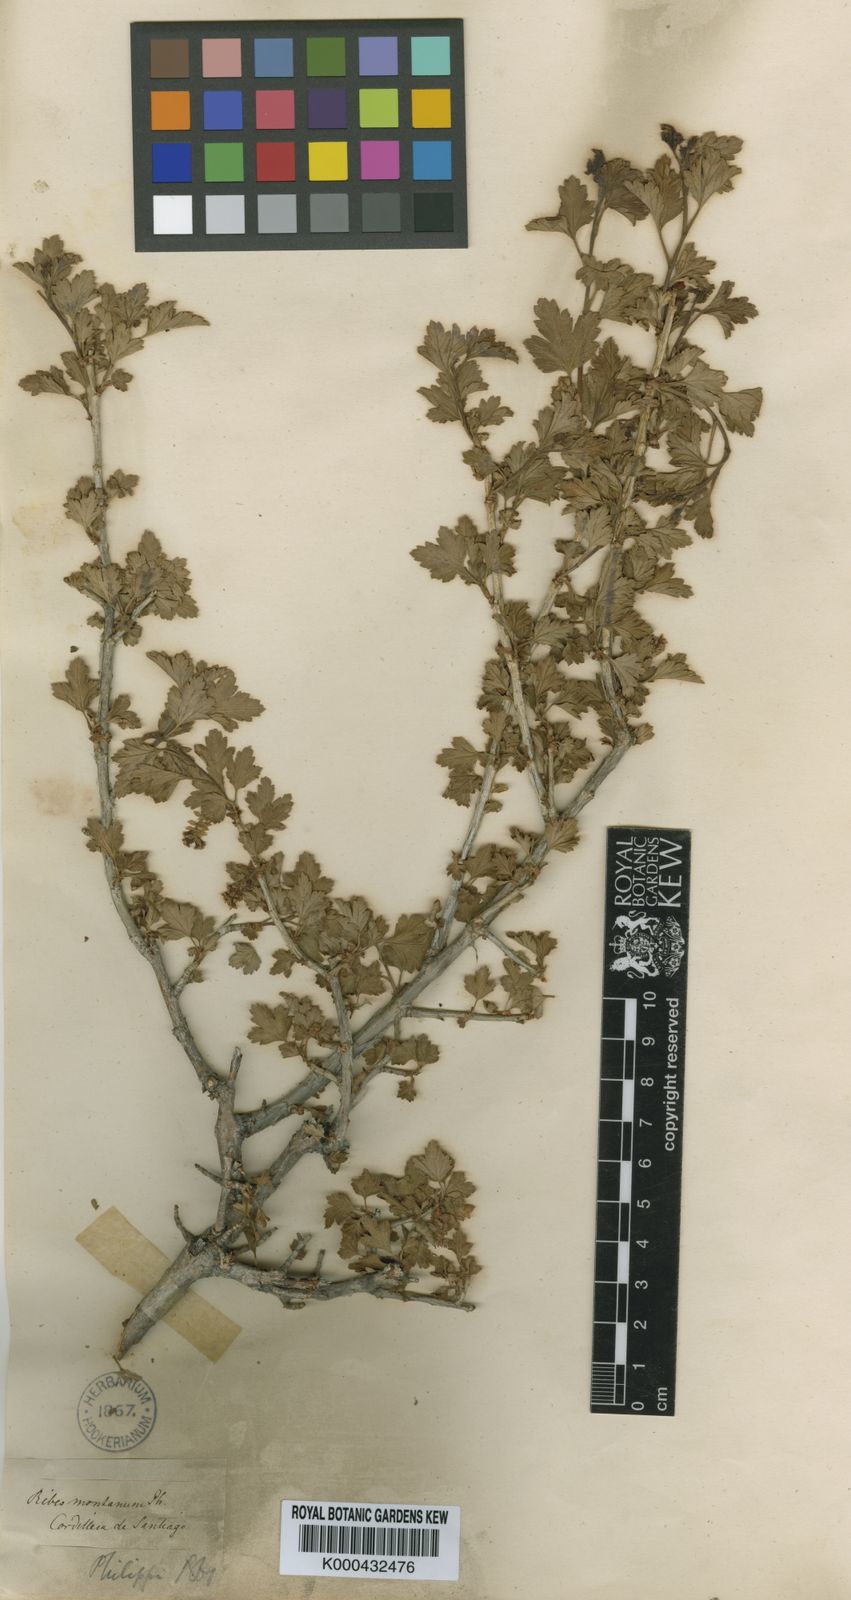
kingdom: Plantae
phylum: Tracheophyta
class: Magnoliopsida
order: Saxifragales
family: Grossulariaceae
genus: Ribes
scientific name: Ribes cucullatum
